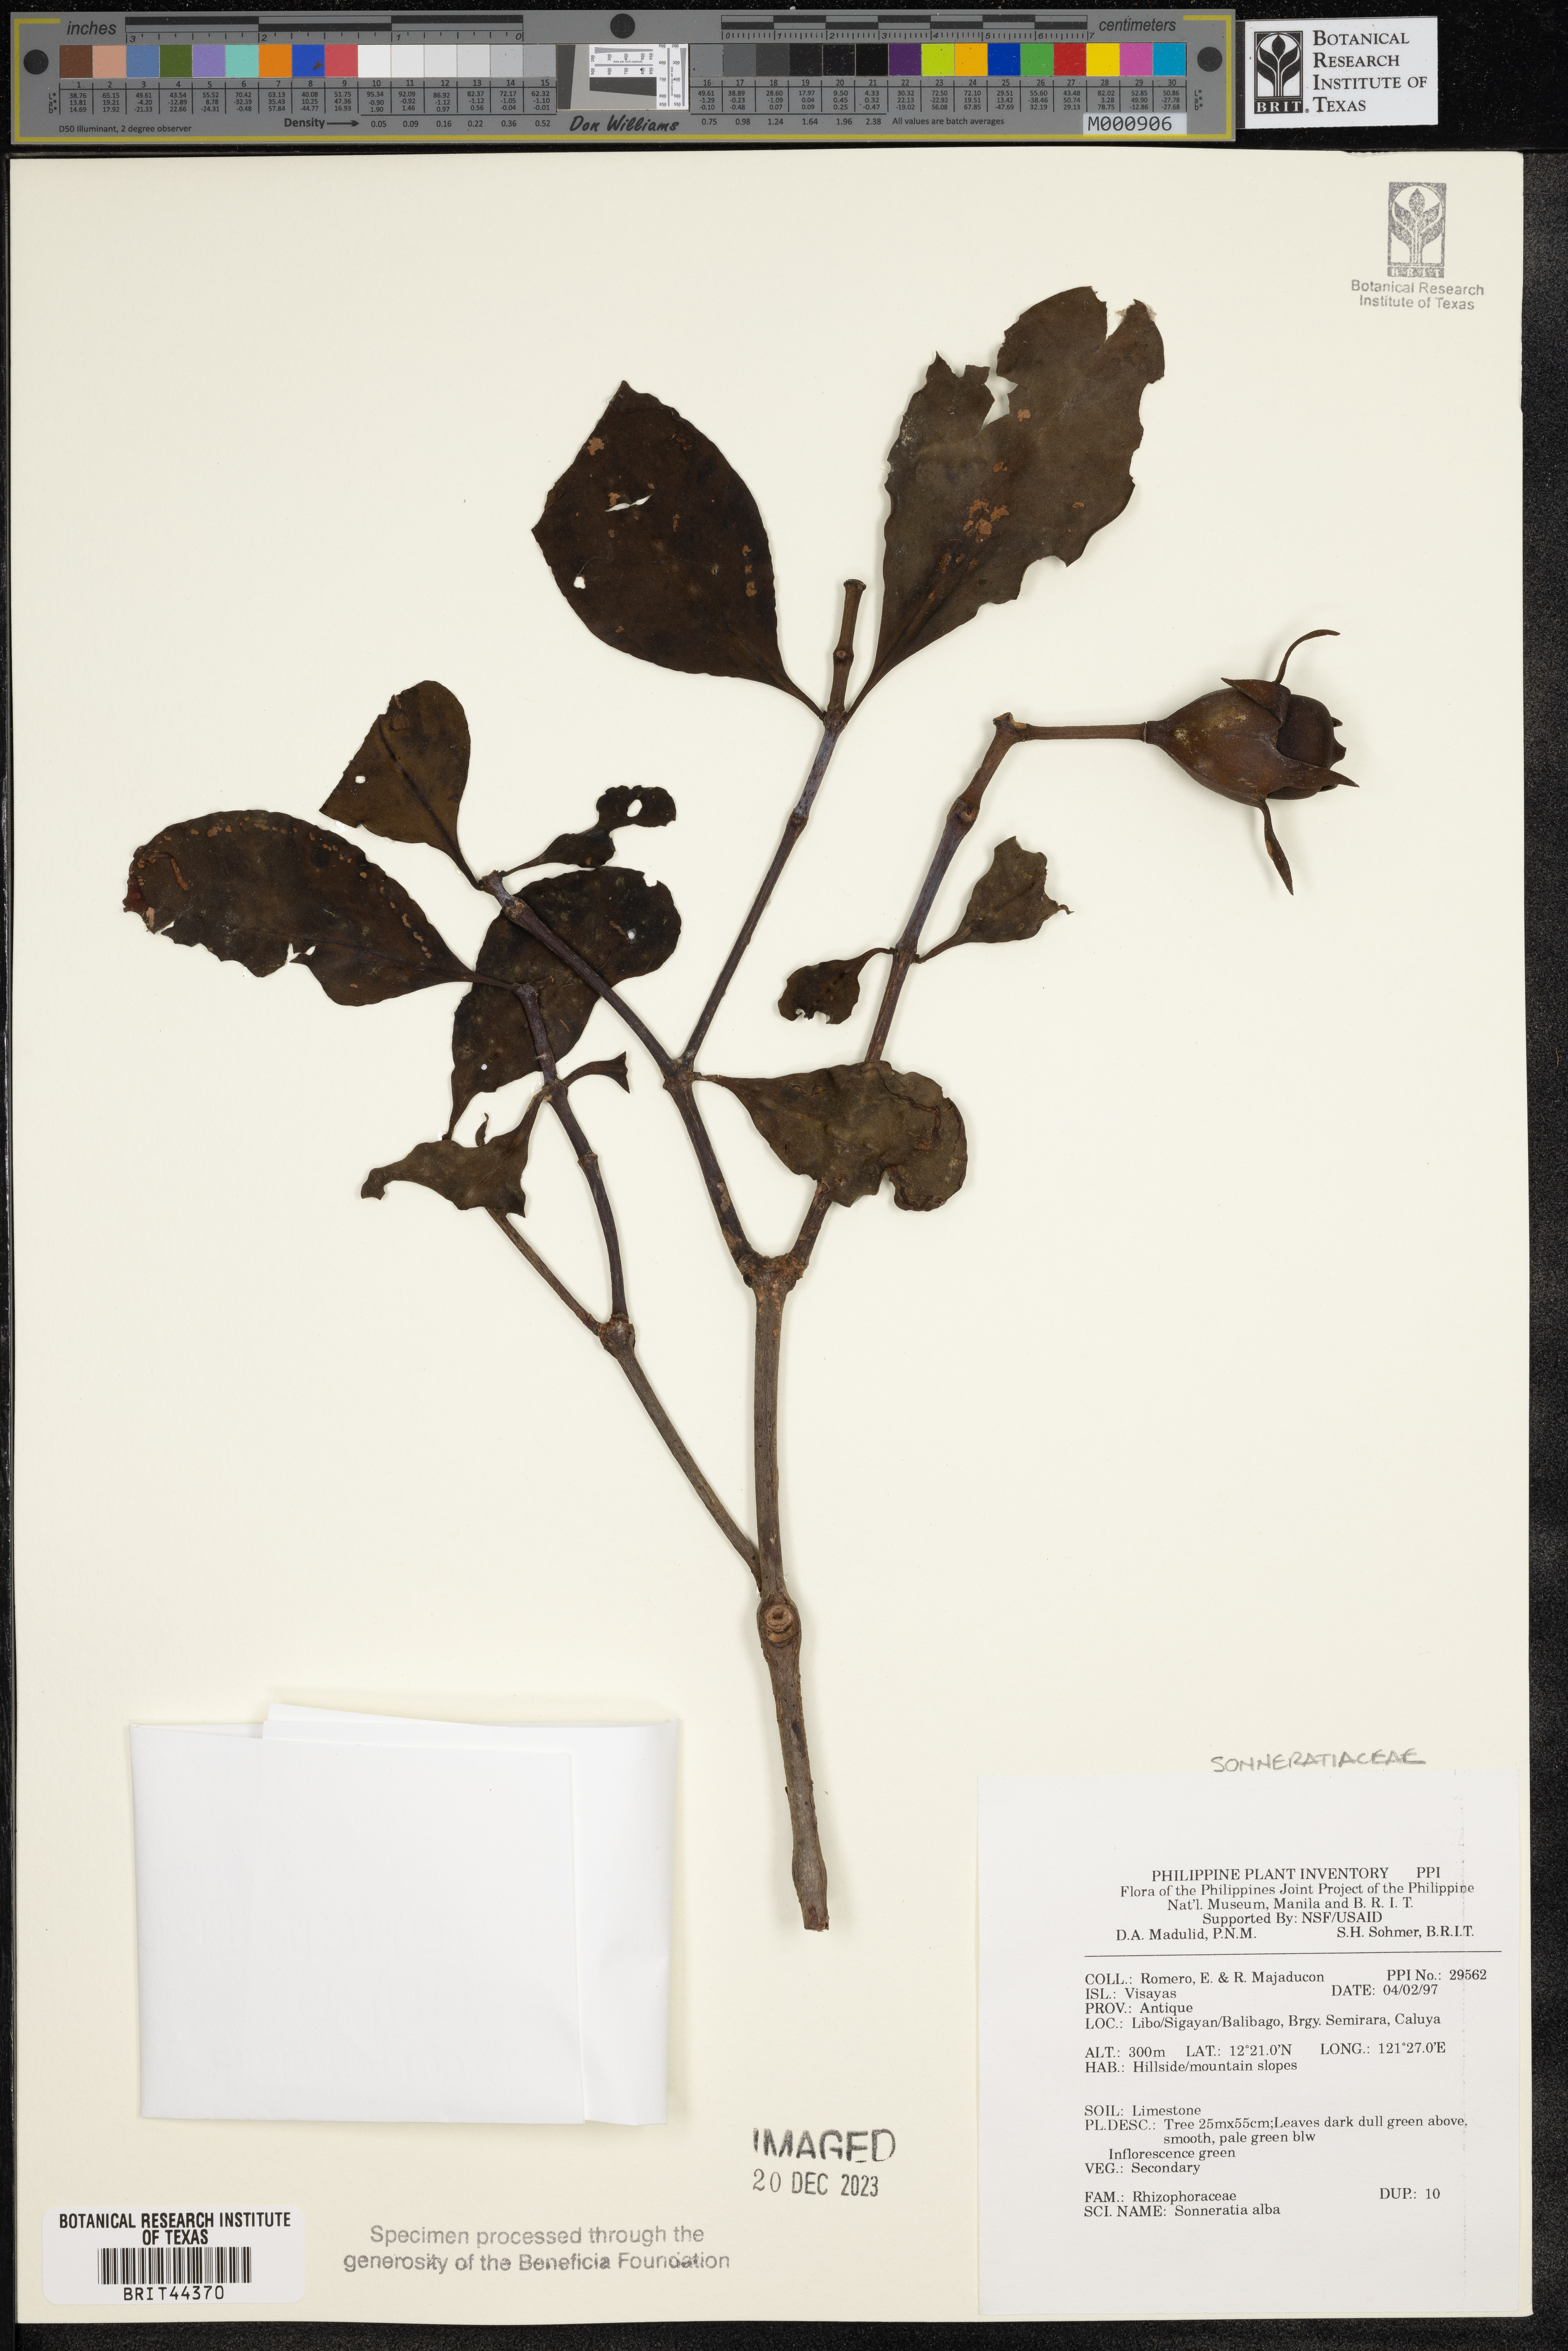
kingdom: Plantae
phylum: Tracheophyta
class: Magnoliopsida
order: Myrtales
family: Lythraceae
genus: Sonneratia
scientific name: Sonneratia alba
